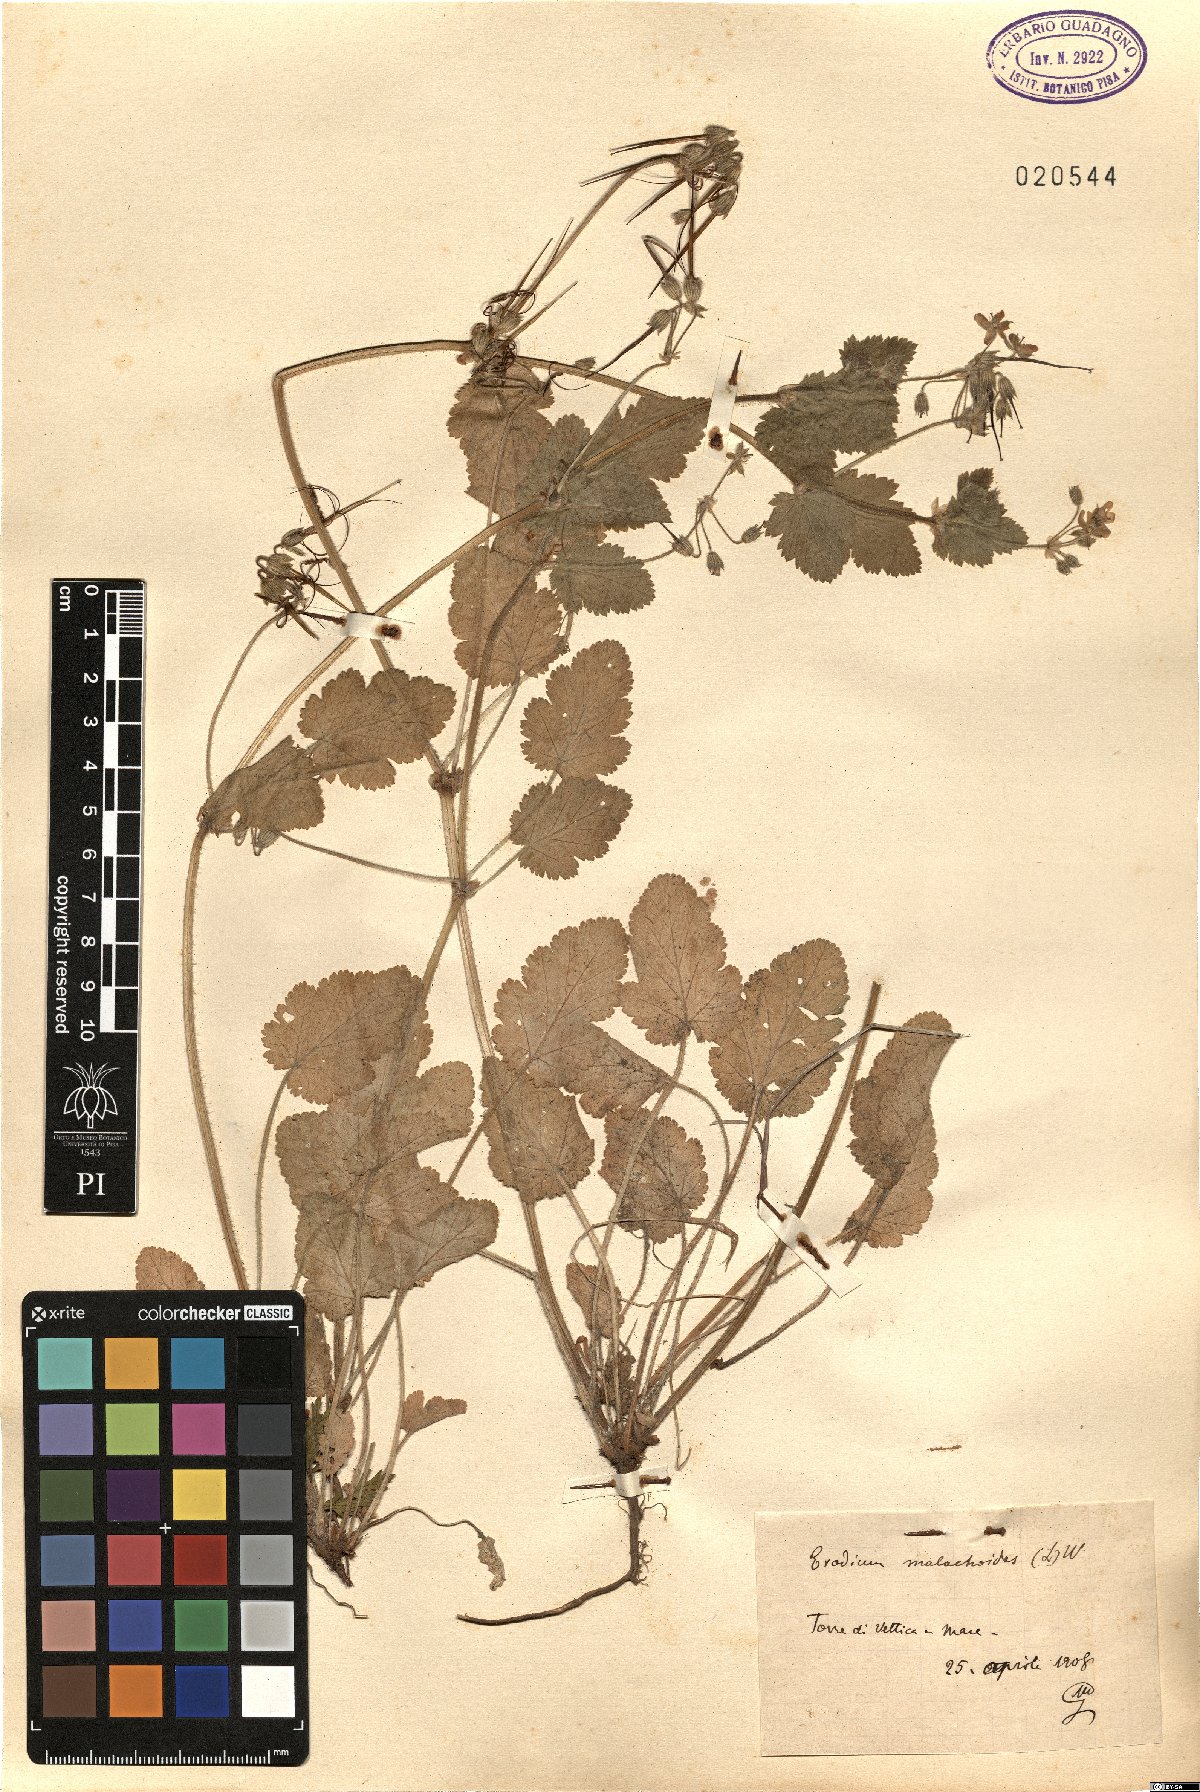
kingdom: Plantae
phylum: Tracheophyta
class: Magnoliopsida
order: Geraniales
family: Geraniaceae
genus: Erodium
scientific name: Erodium malacoides
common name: Soft stork's-bill
